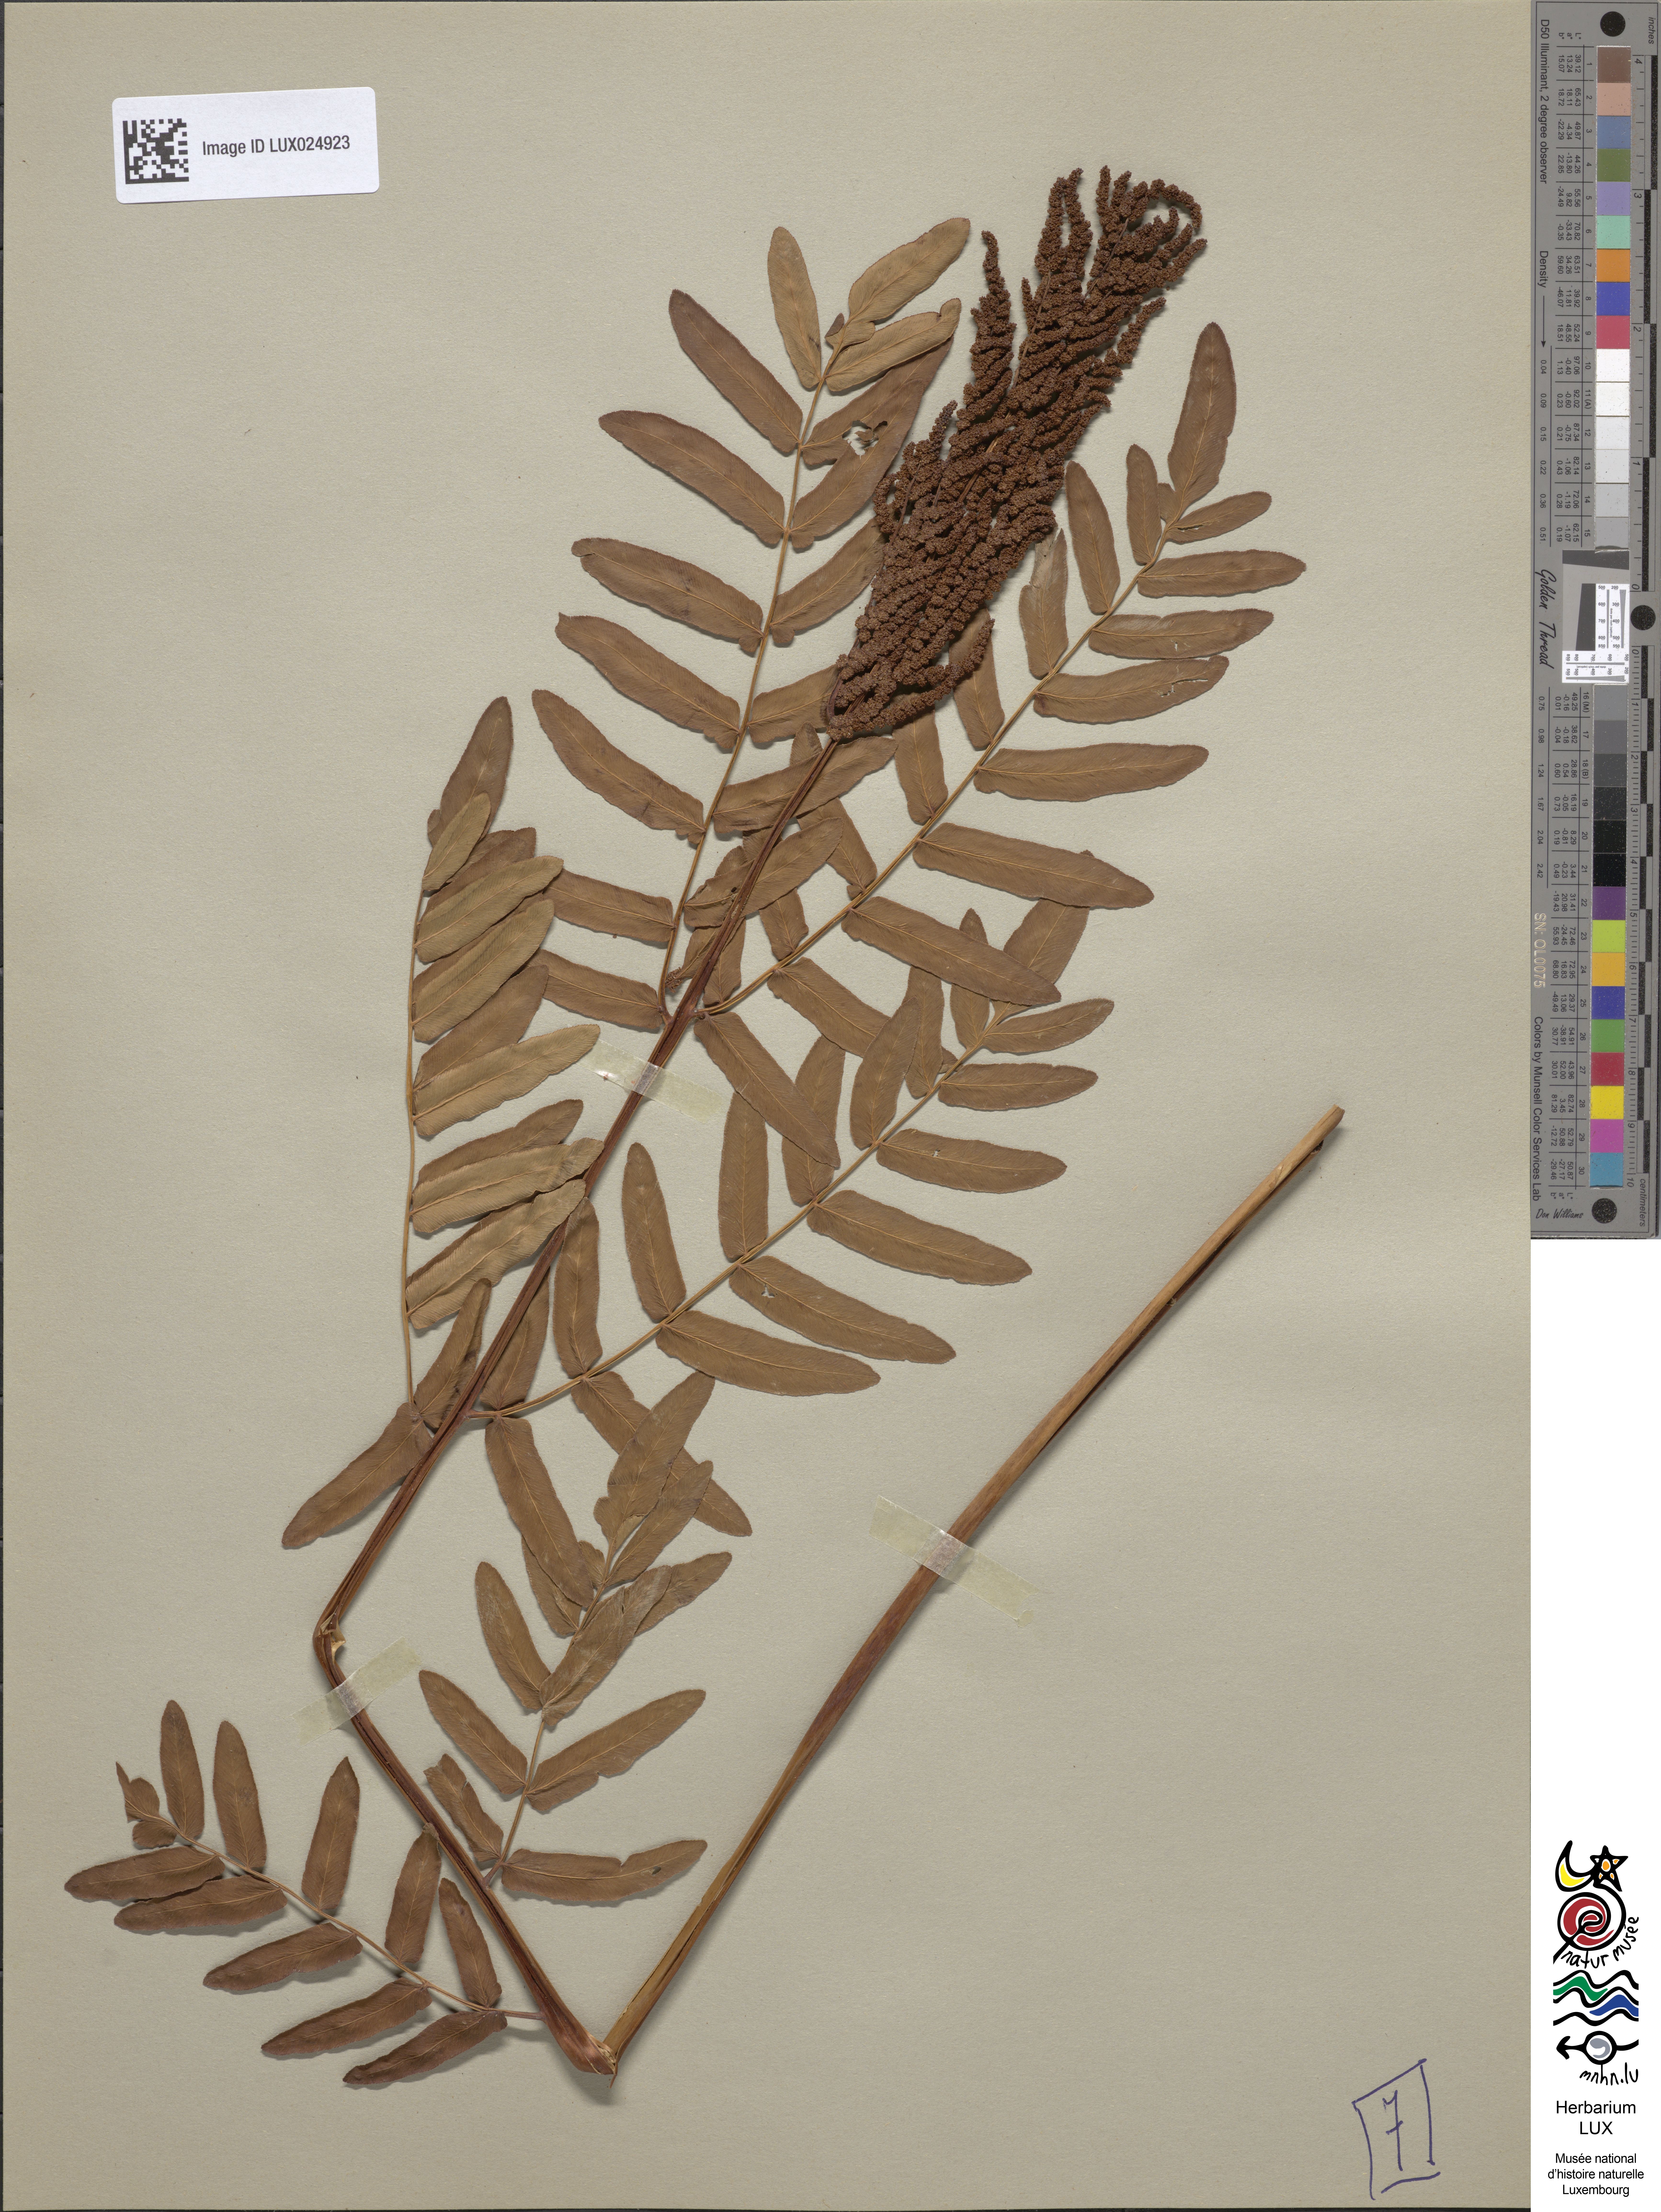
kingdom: Plantae
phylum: Tracheophyta
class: Polypodiopsida
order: Osmundales
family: Osmundaceae
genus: Osmunda
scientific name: Osmunda regalis
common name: Royal fern
